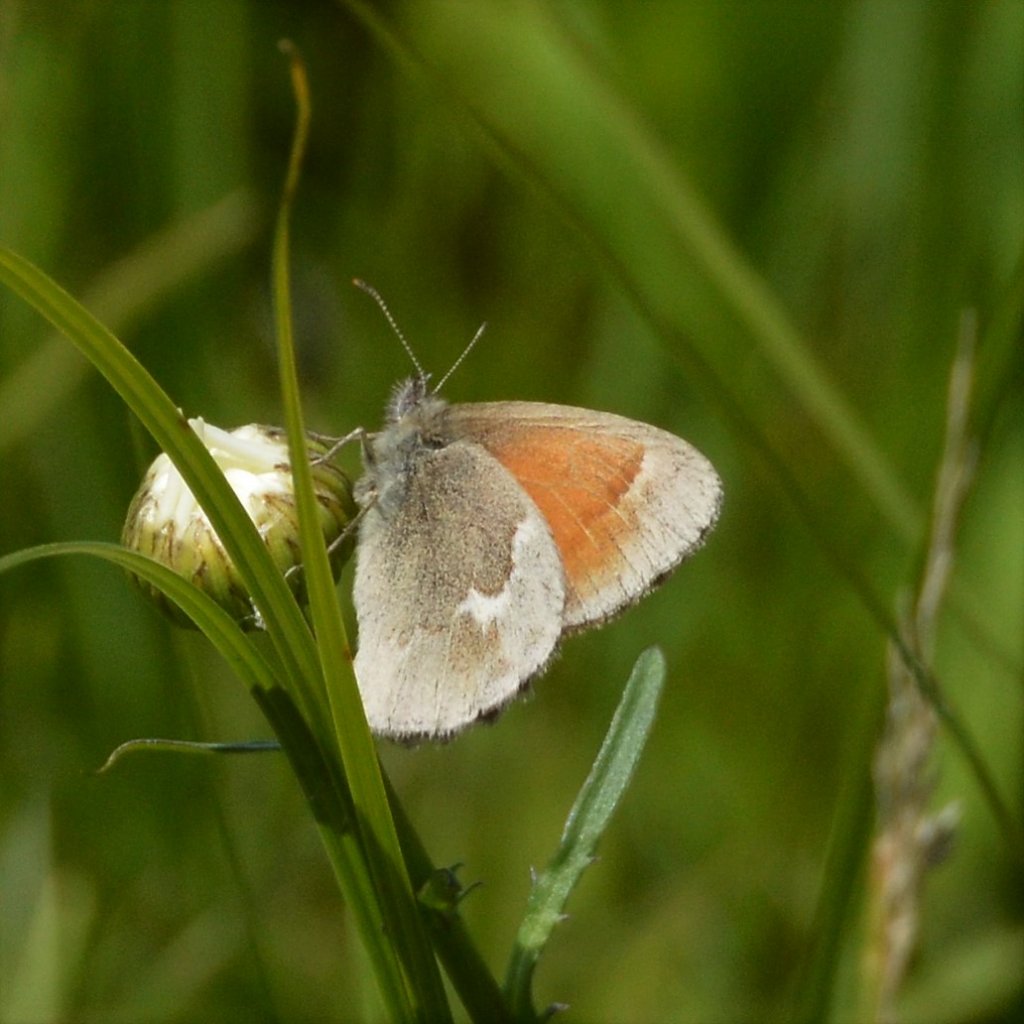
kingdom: Animalia
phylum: Arthropoda
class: Insecta
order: Lepidoptera
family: Nymphalidae
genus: Coenonympha
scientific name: Coenonympha tullia
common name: Large Heath
